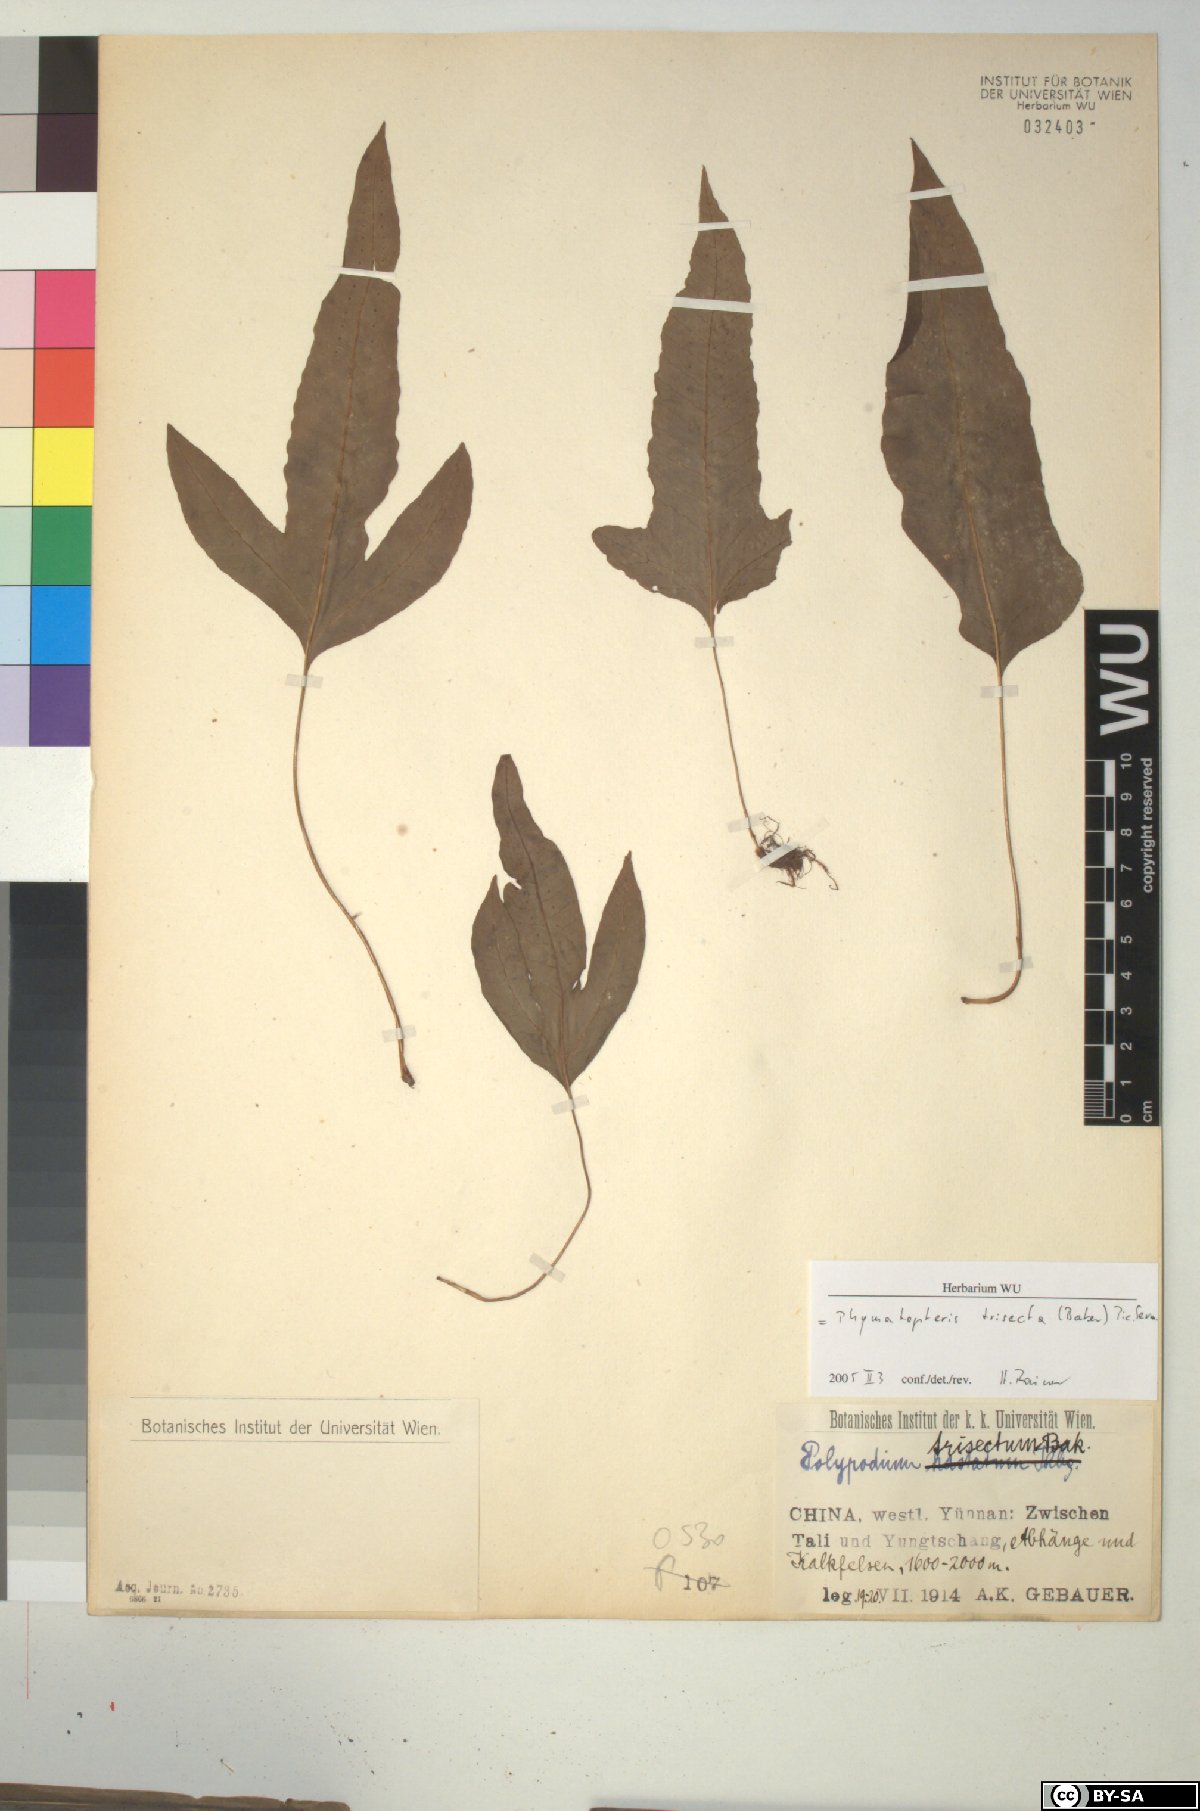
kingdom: Plantae
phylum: Tracheophyta
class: Polypodiopsida
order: Polypodiales
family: Polypodiaceae
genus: Selliguea
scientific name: Selliguea trisecta
